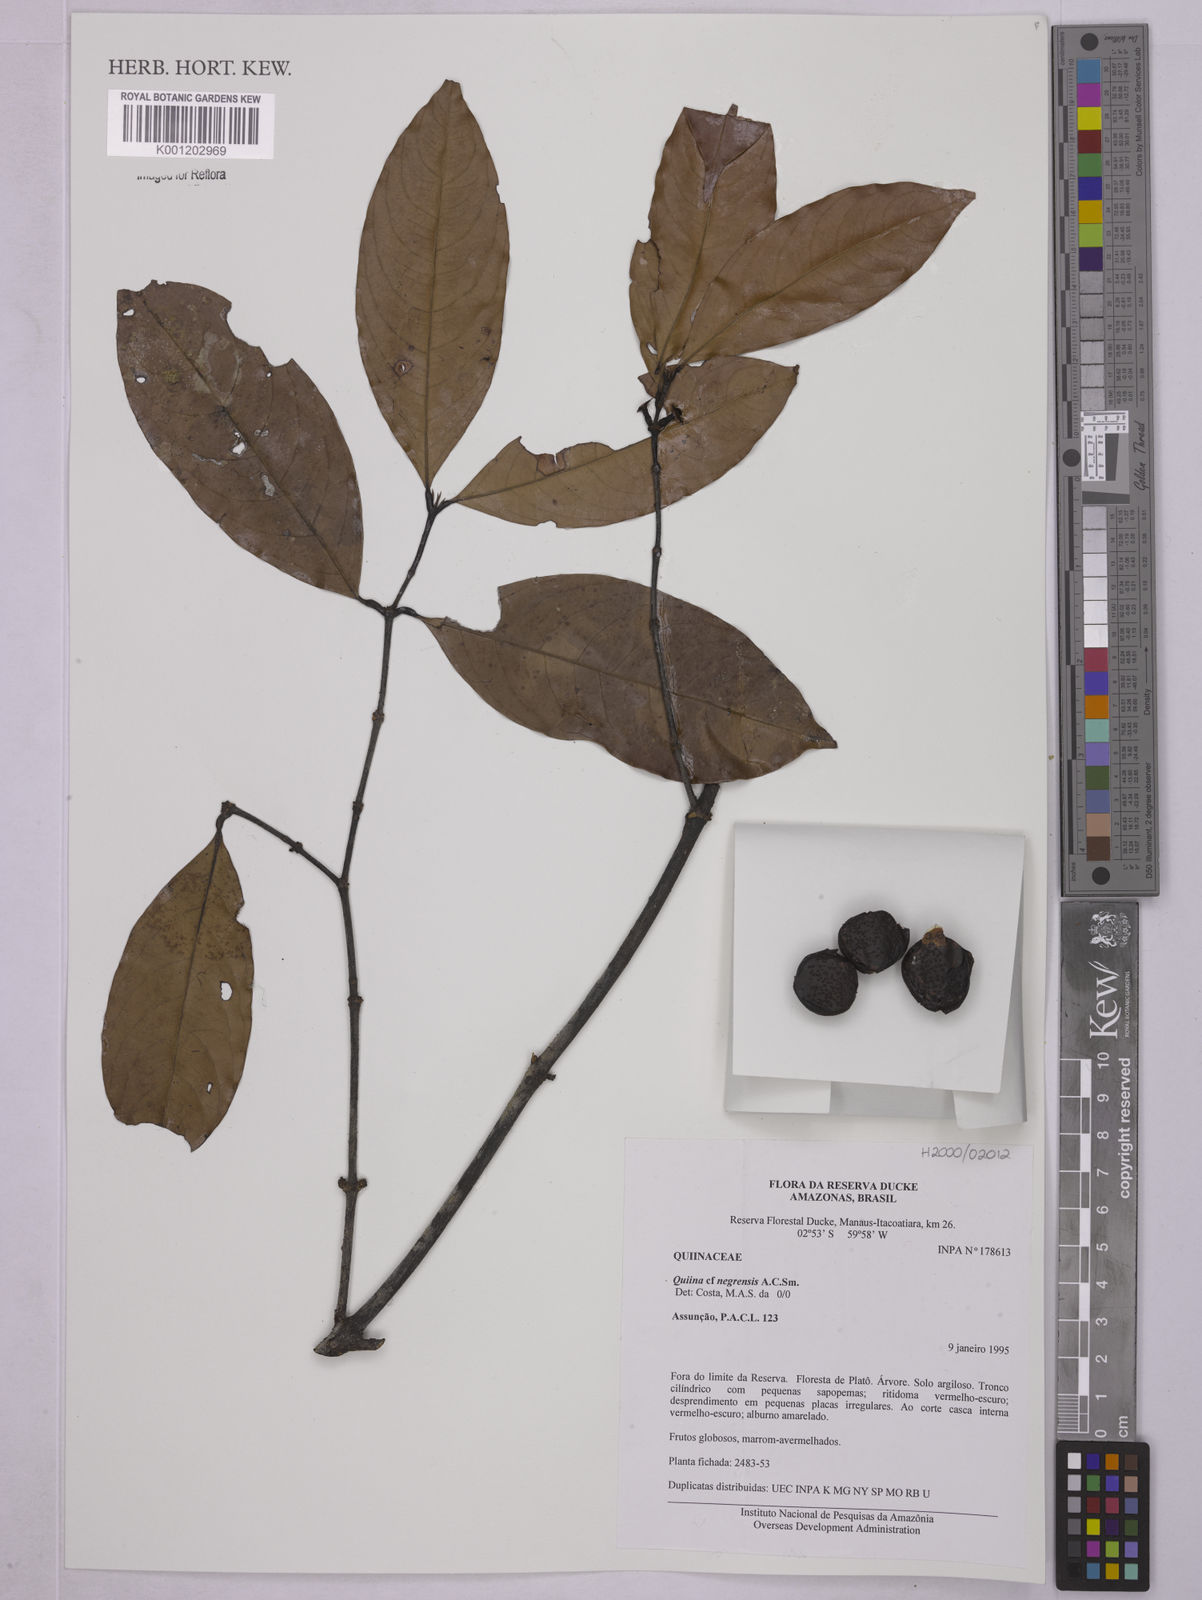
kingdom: Plantae
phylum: Tracheophyta
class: Magnoliopsida
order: Malpighiales
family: Quiinaceae
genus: Quiina
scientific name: Quiina negrensis
